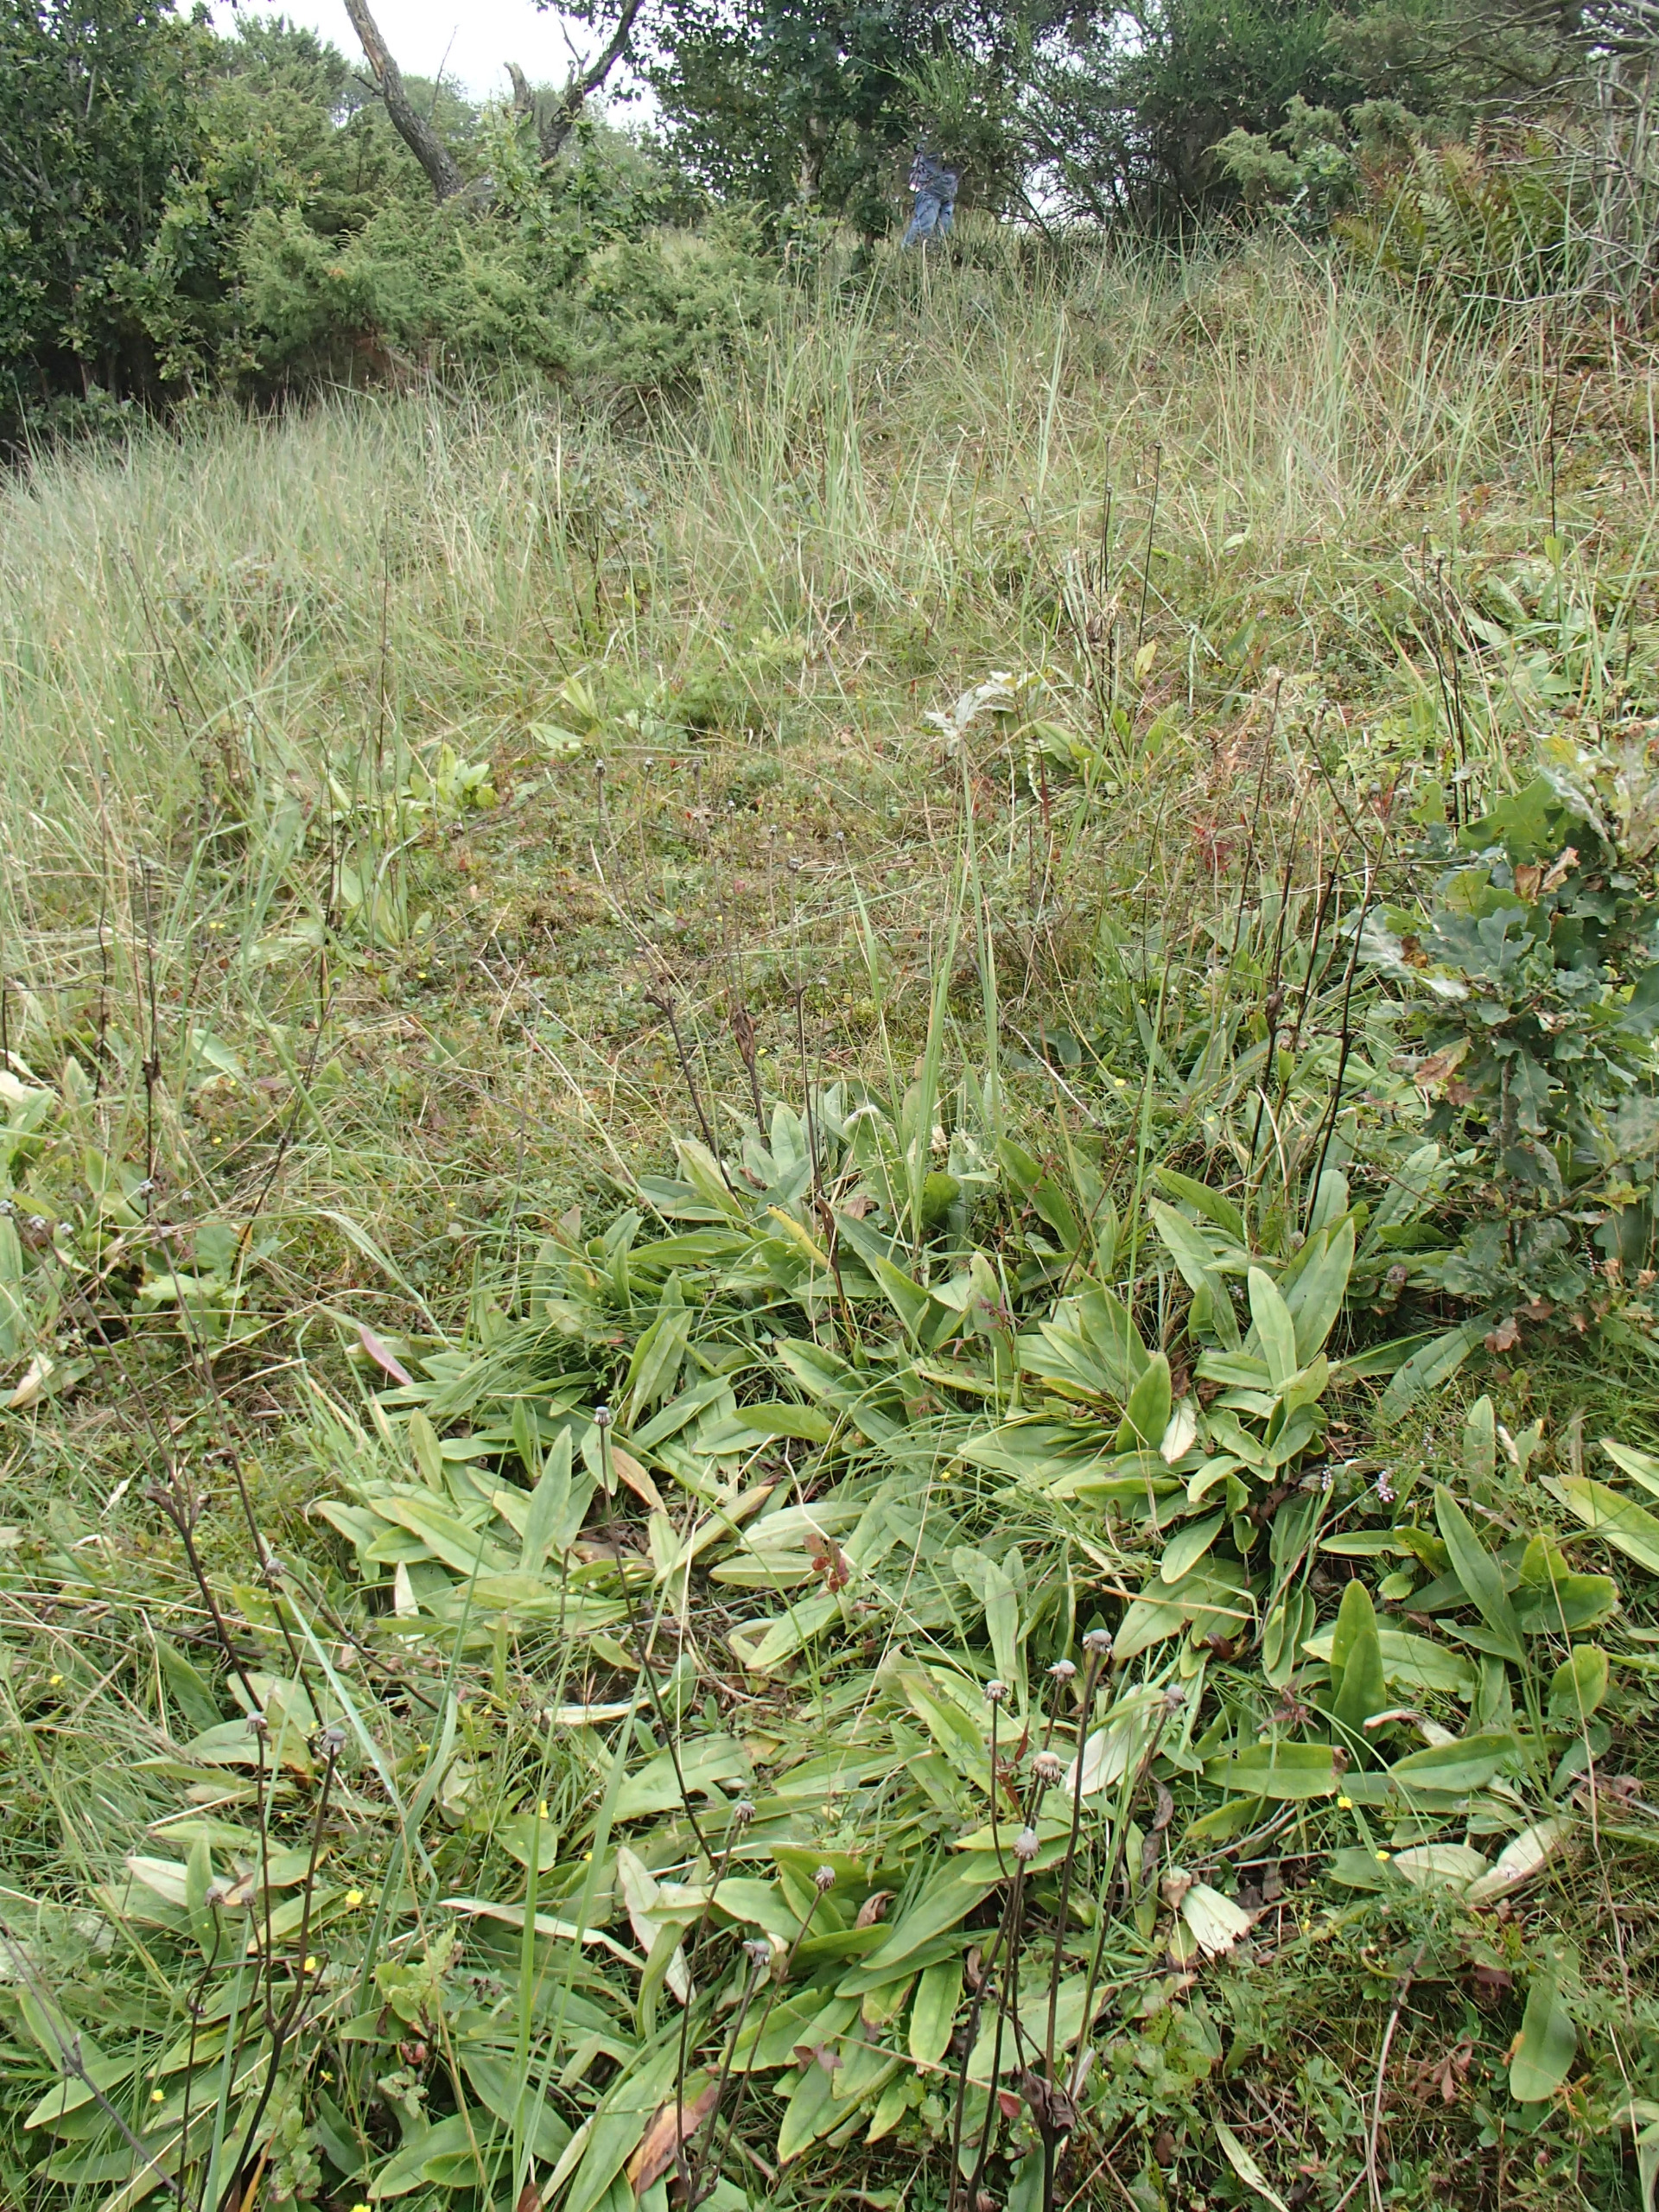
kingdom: Plantae
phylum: Tracheophyta
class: Magnoliopsida
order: Asterales
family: Asteraceae
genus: Arnica
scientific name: Arnica montana
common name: Guldblomme
